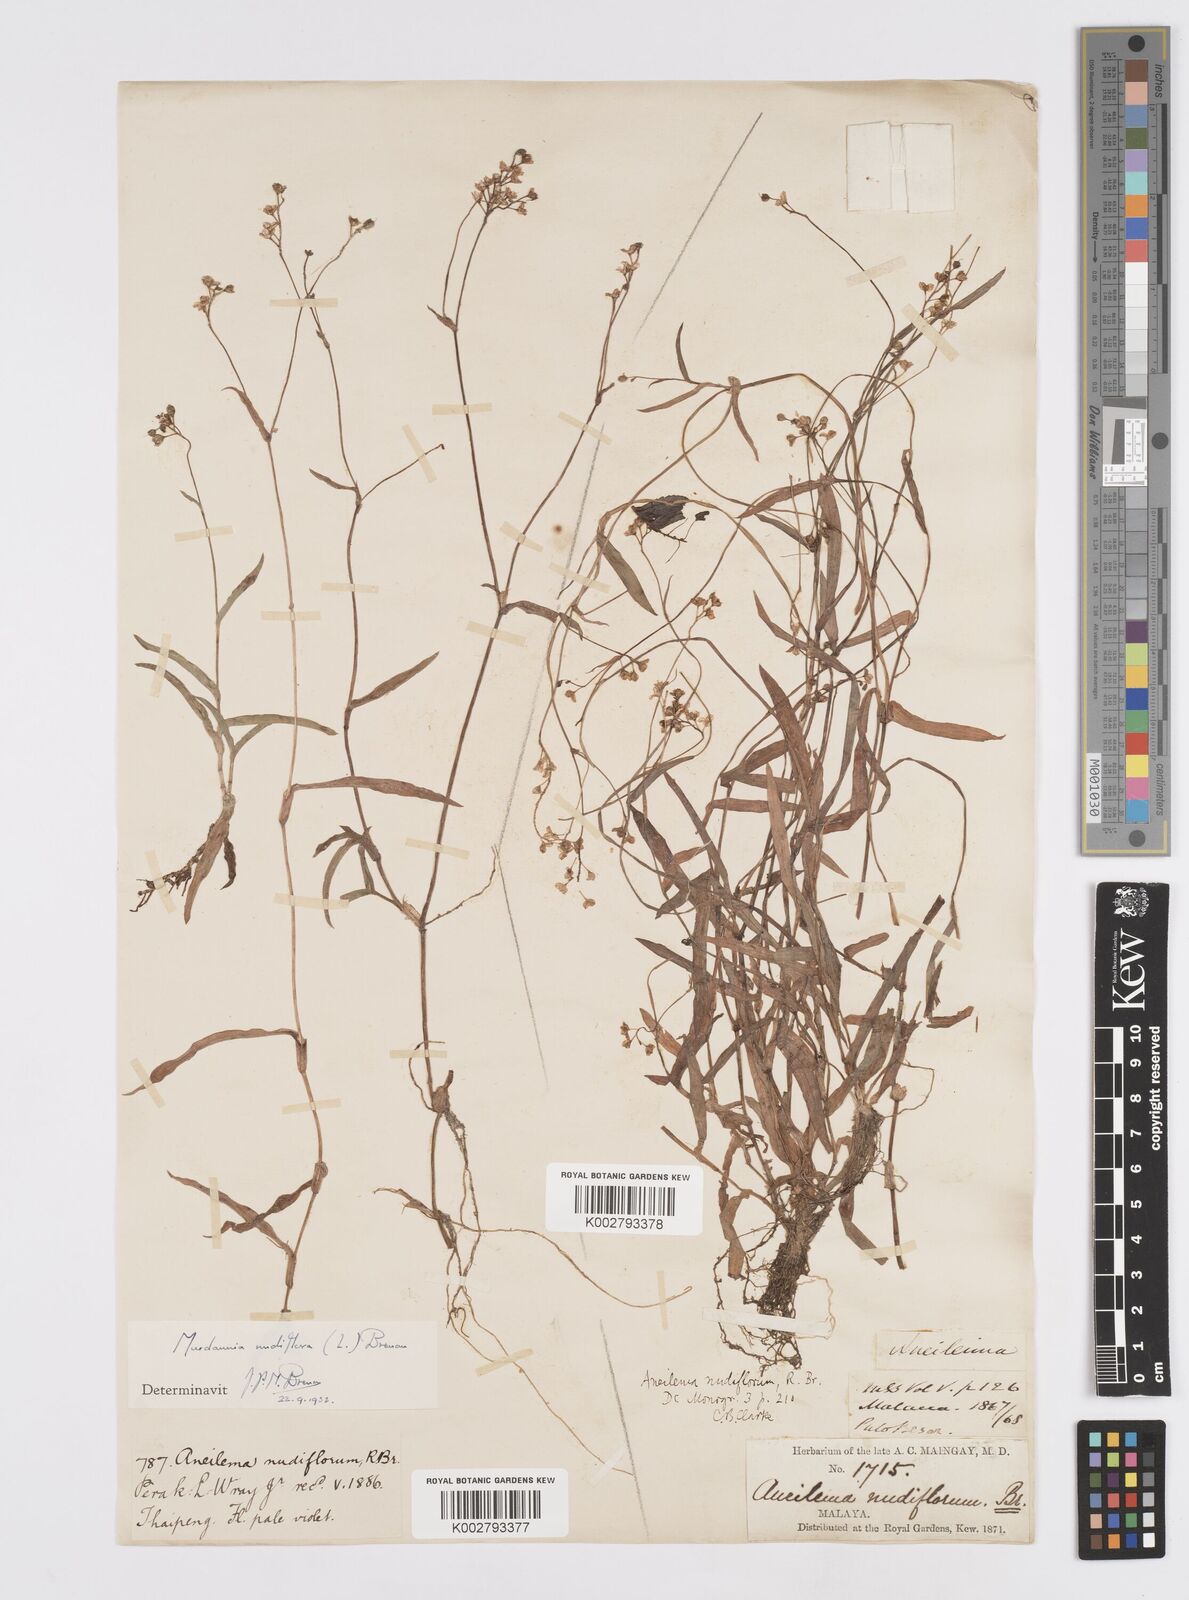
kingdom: Plantae
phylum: Tracheophyta
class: Liliopsida
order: Commelinales
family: Commelinaceae
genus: Murdannia
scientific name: Murdannia
